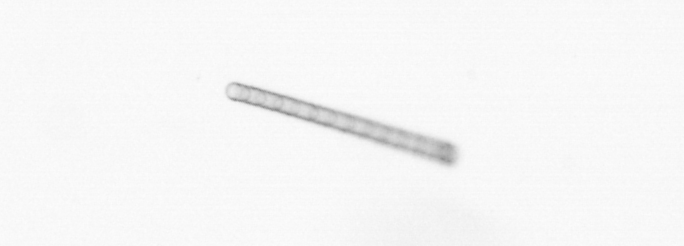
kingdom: Chromista
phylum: Ochrophyta
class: Bacillariophyceae
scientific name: Bacillariophyceae
